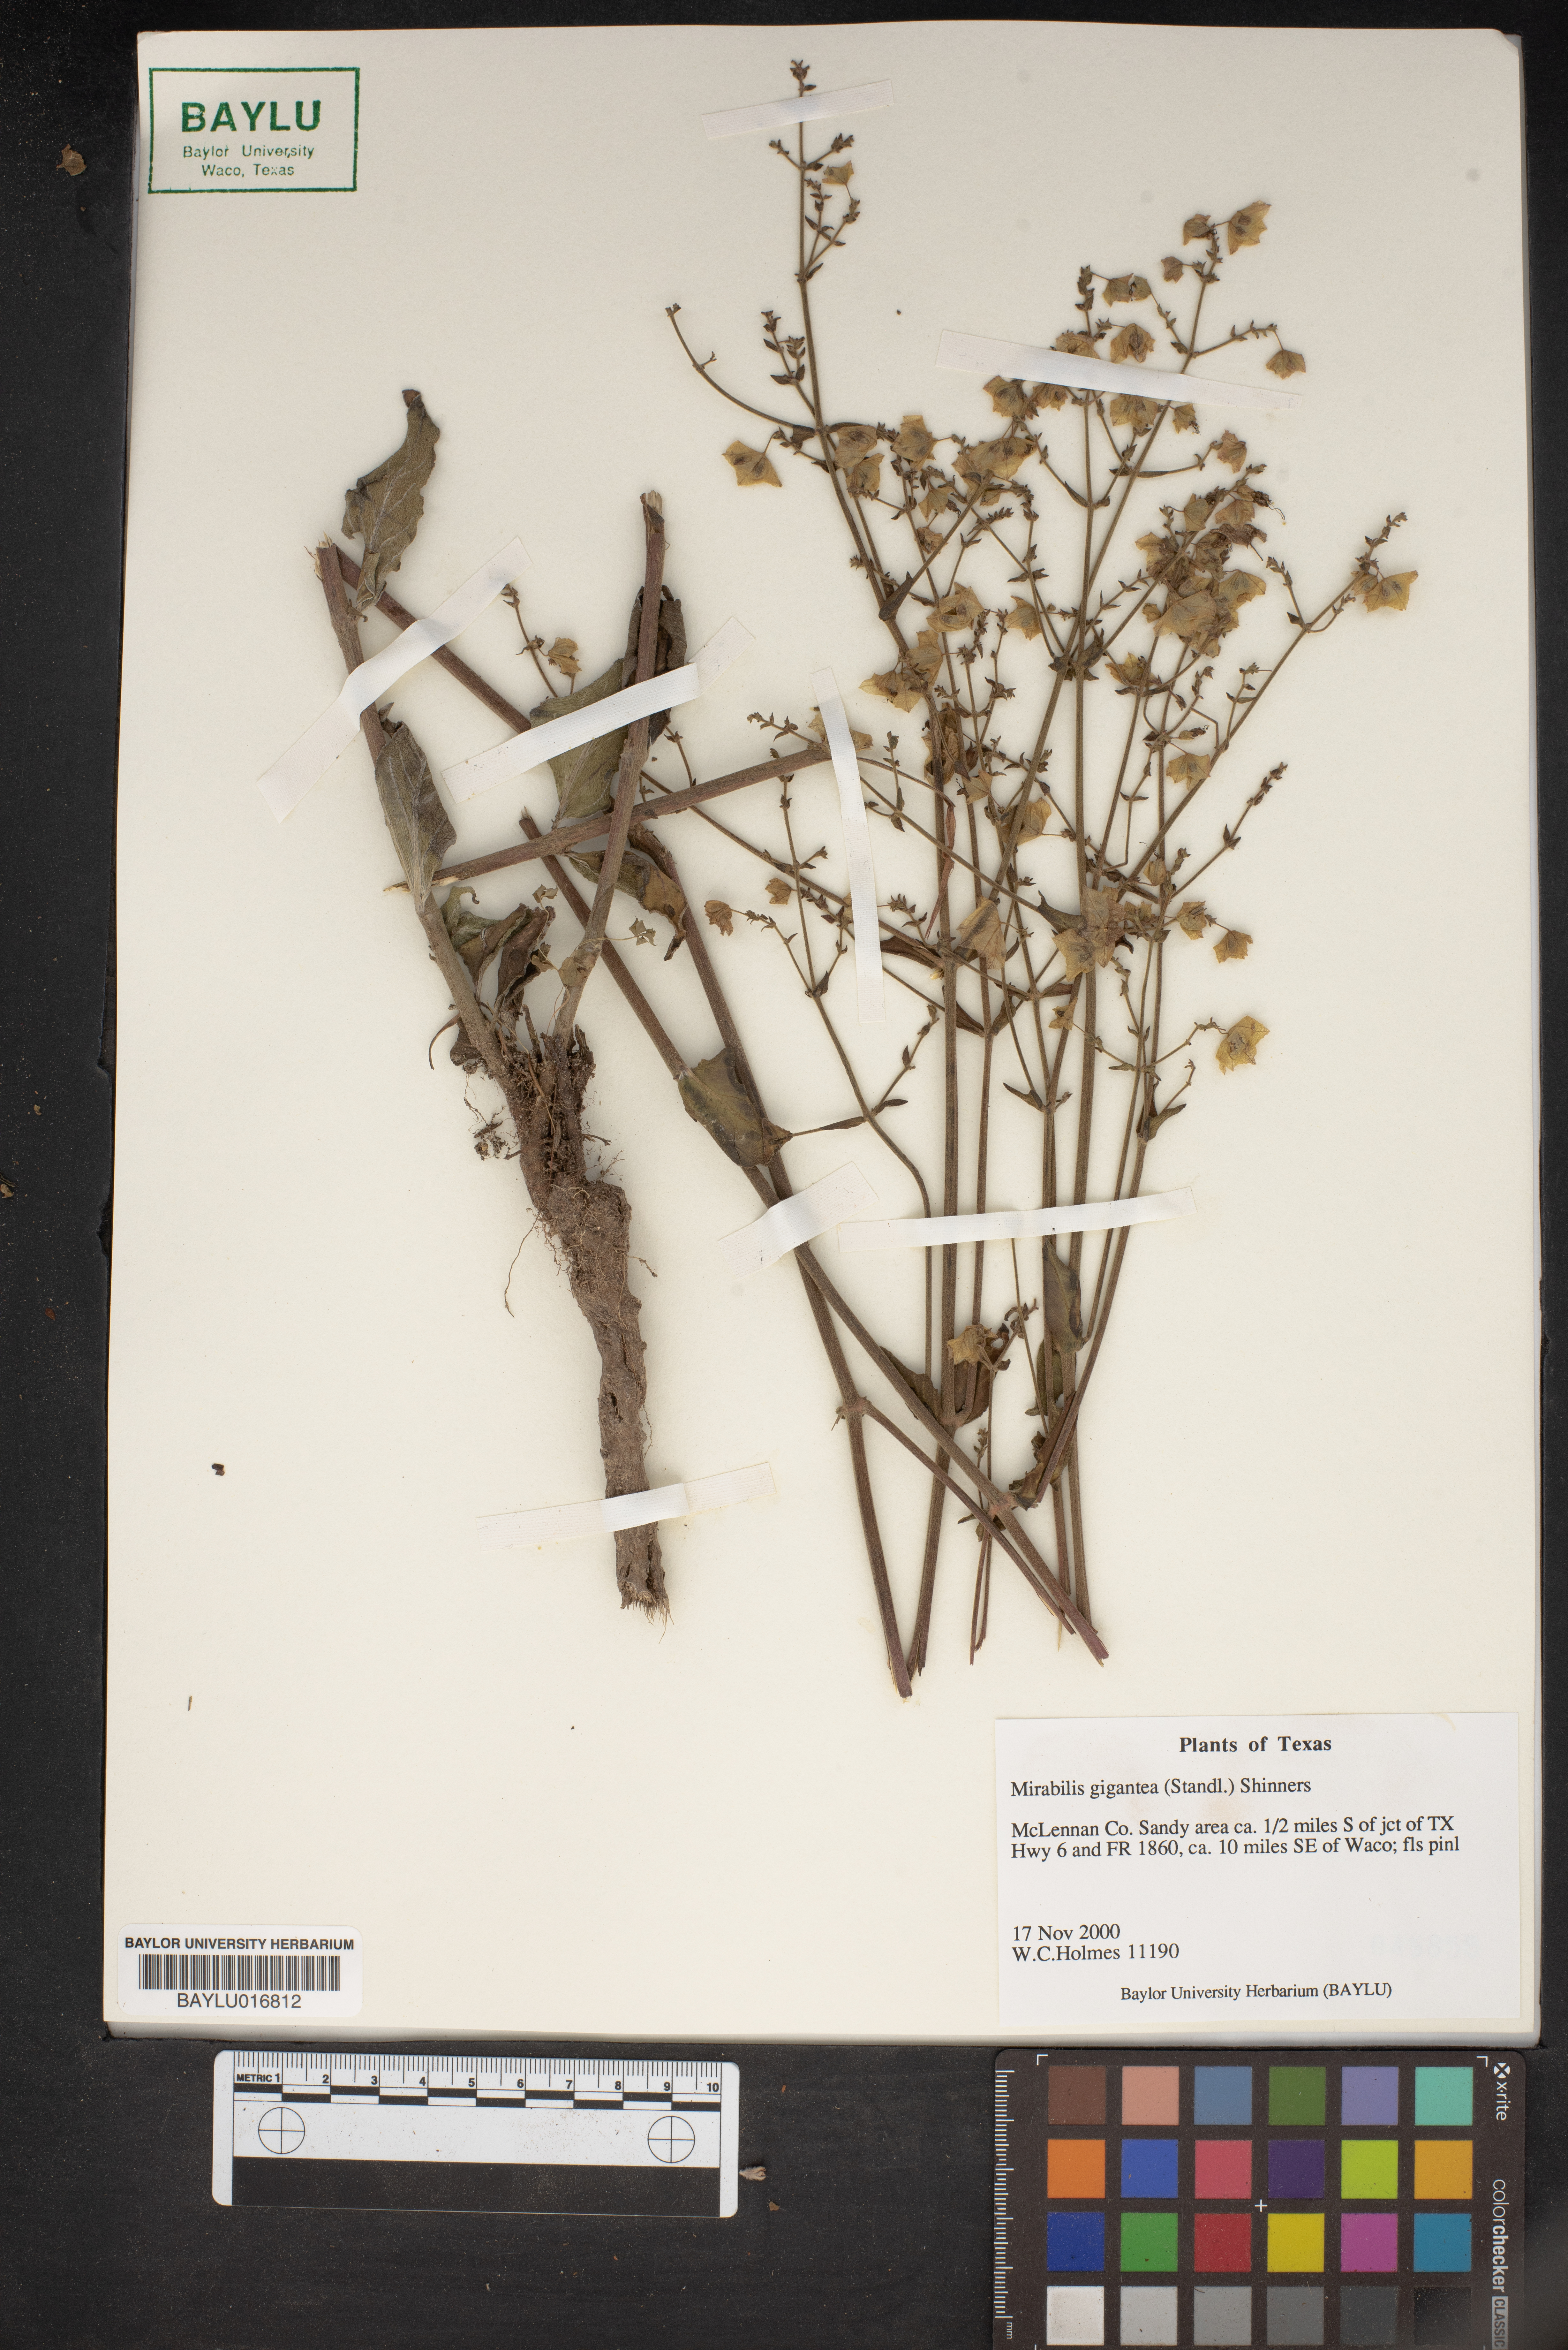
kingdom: Plantae
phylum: Tracheophyta
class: Magnoliopsida
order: Caryophyllales
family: Nyctaginaceae
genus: Mirabilis
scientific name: Mirabilis gigantea
